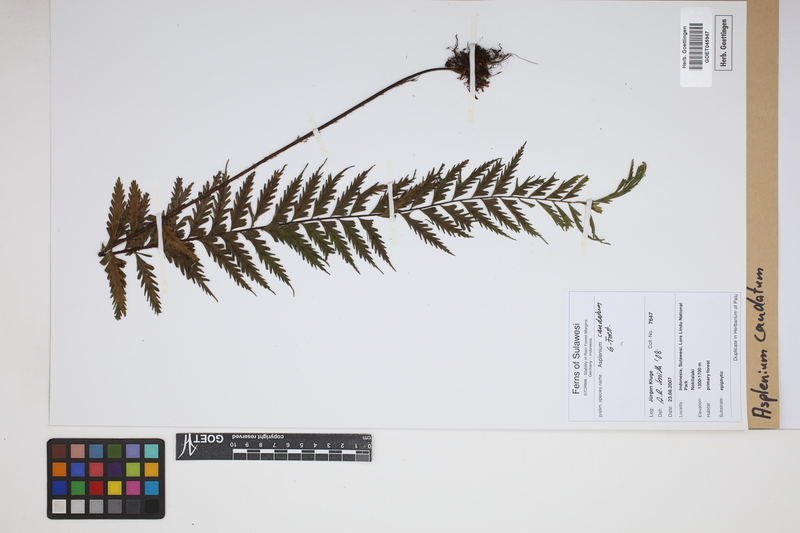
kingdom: Plantae
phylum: Tracheophyta
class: Polypodiopsida
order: Polypodiales
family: Aspleniaceae
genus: Asplenium
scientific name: Asplenium caudatum
